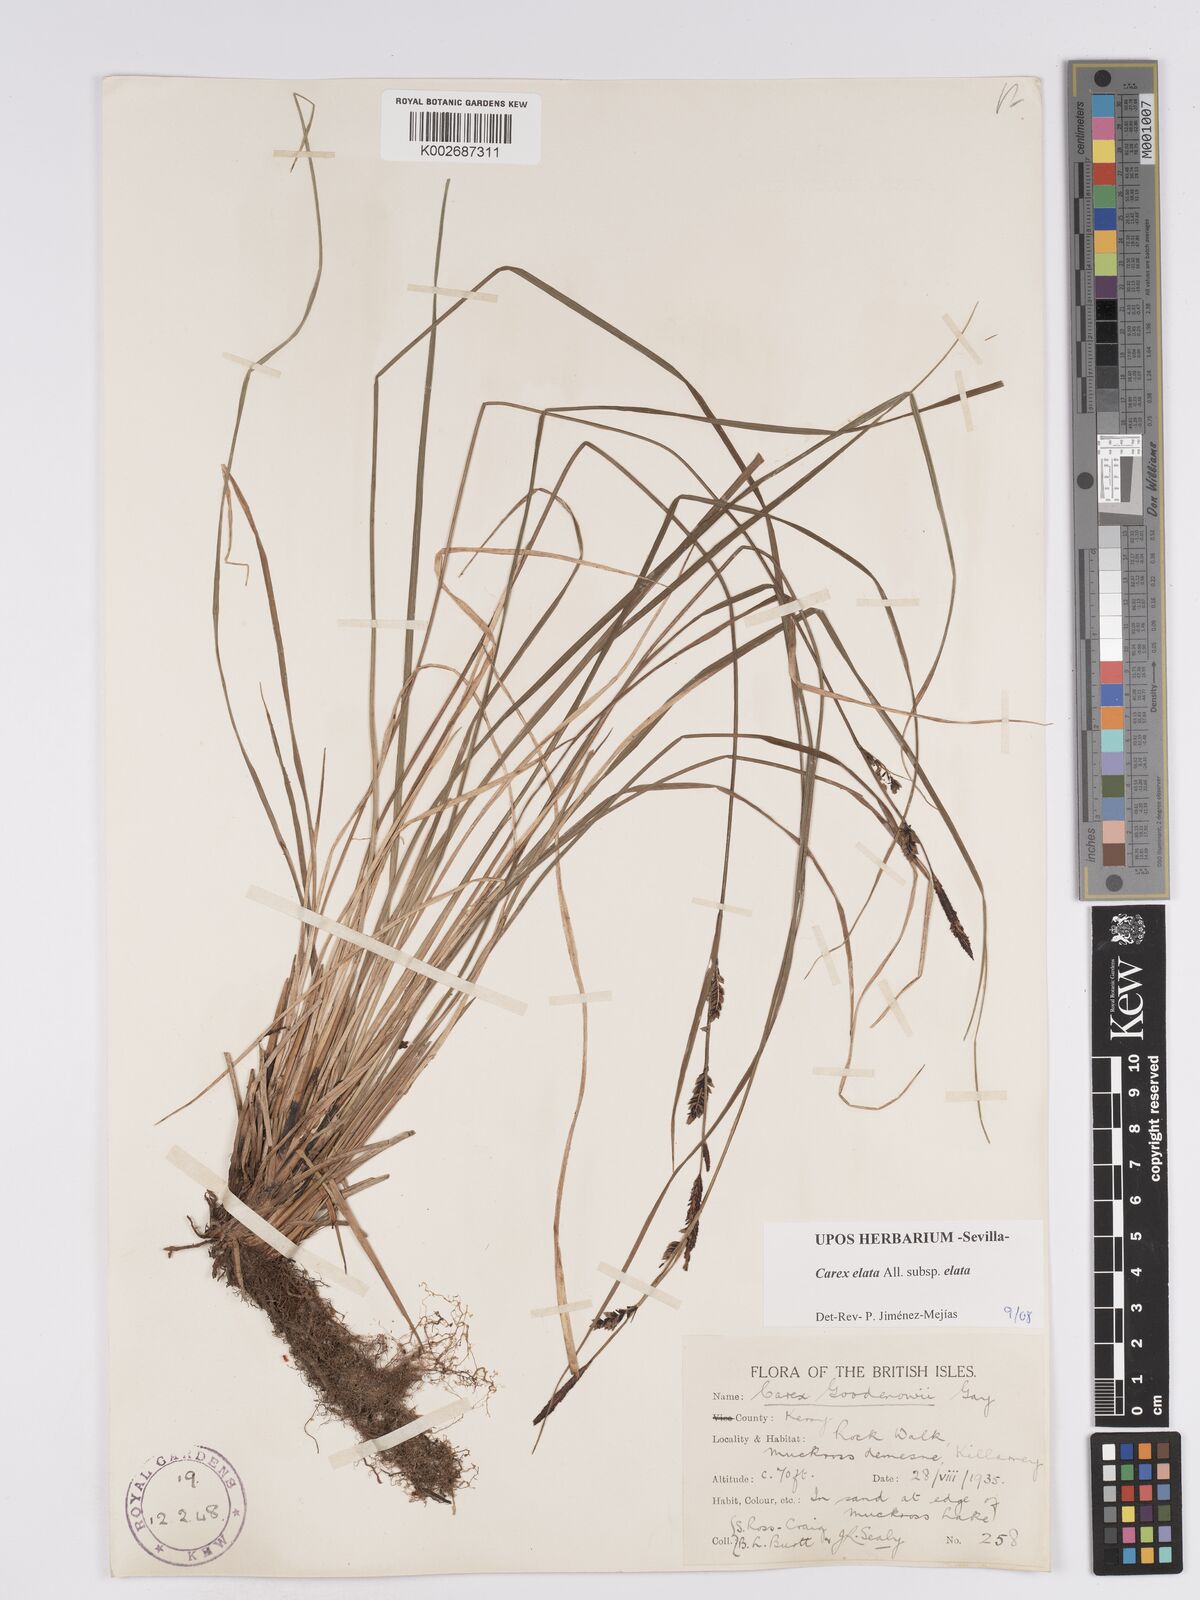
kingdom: Plantae
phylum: Tracheophyta
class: Liliopsida
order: Poales
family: Cyperaceae
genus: Carex
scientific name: Carex nigra
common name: Common sedge
